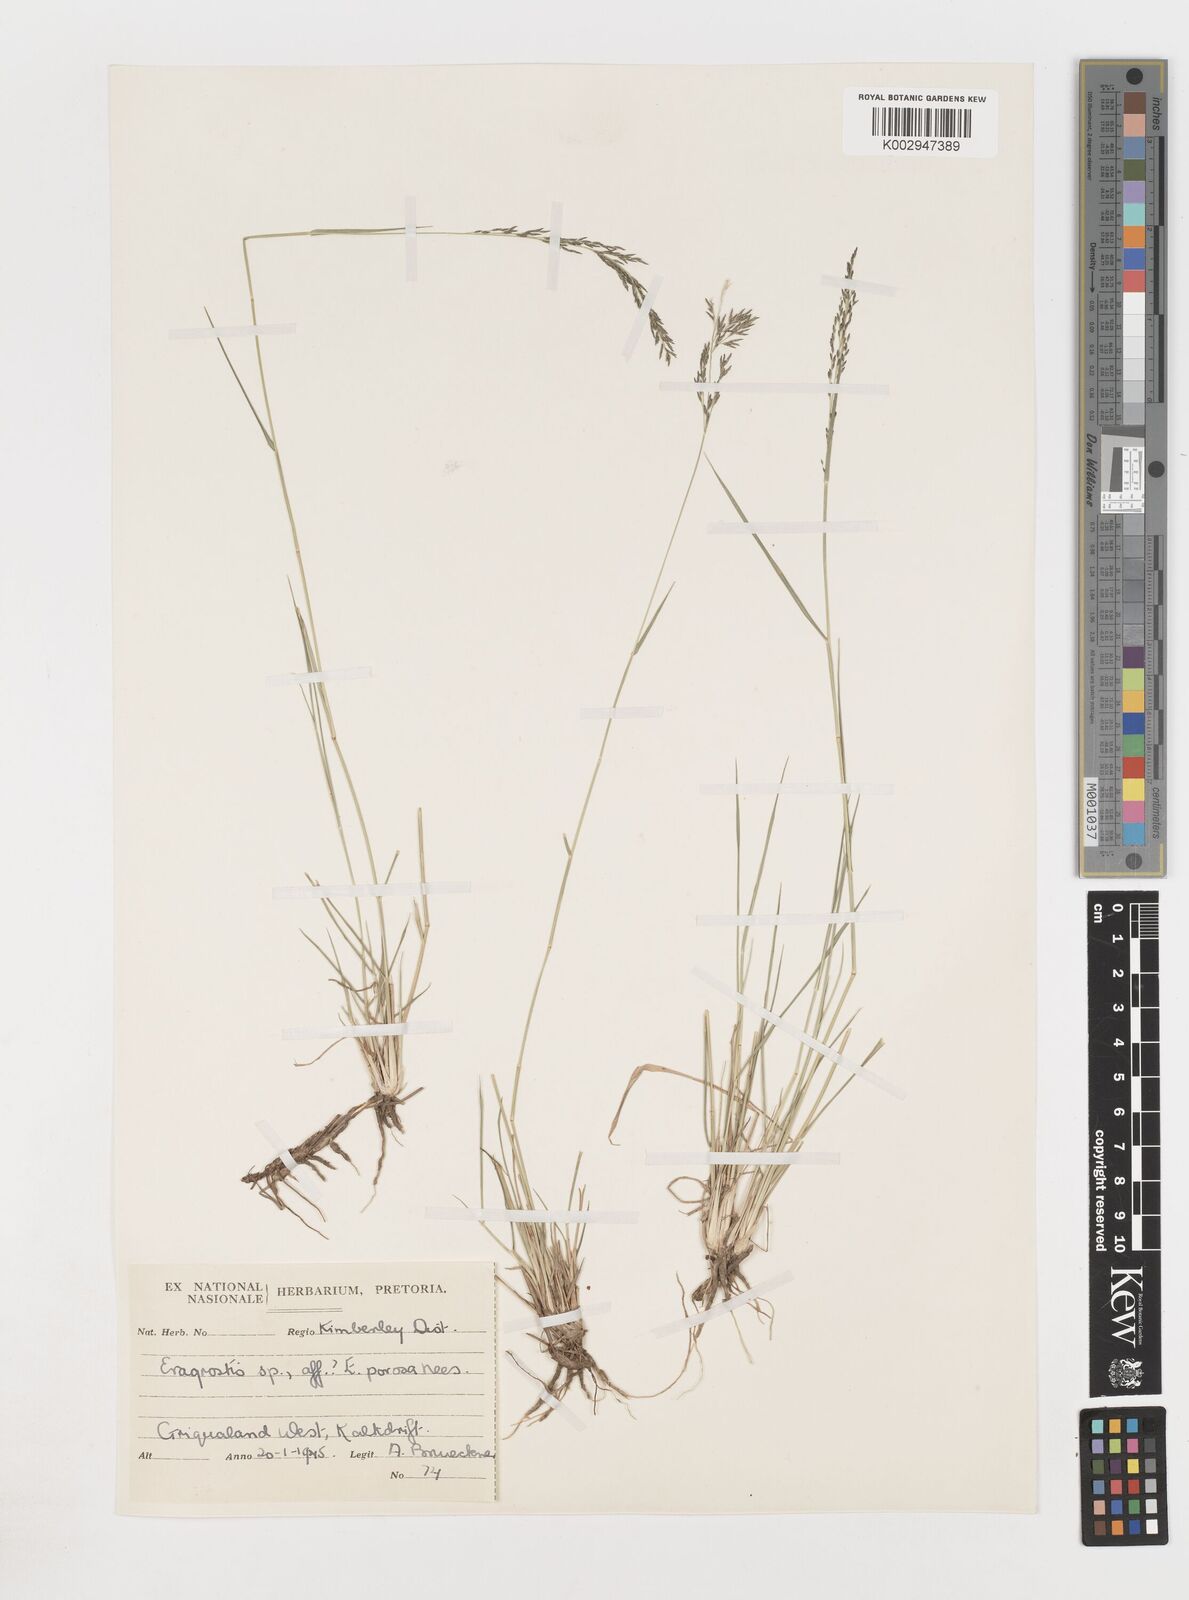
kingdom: Plantae
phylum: Tracheophyta
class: Liliopsida
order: Poales
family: Poaceae
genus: Eragrostis
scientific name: Eragrostis
